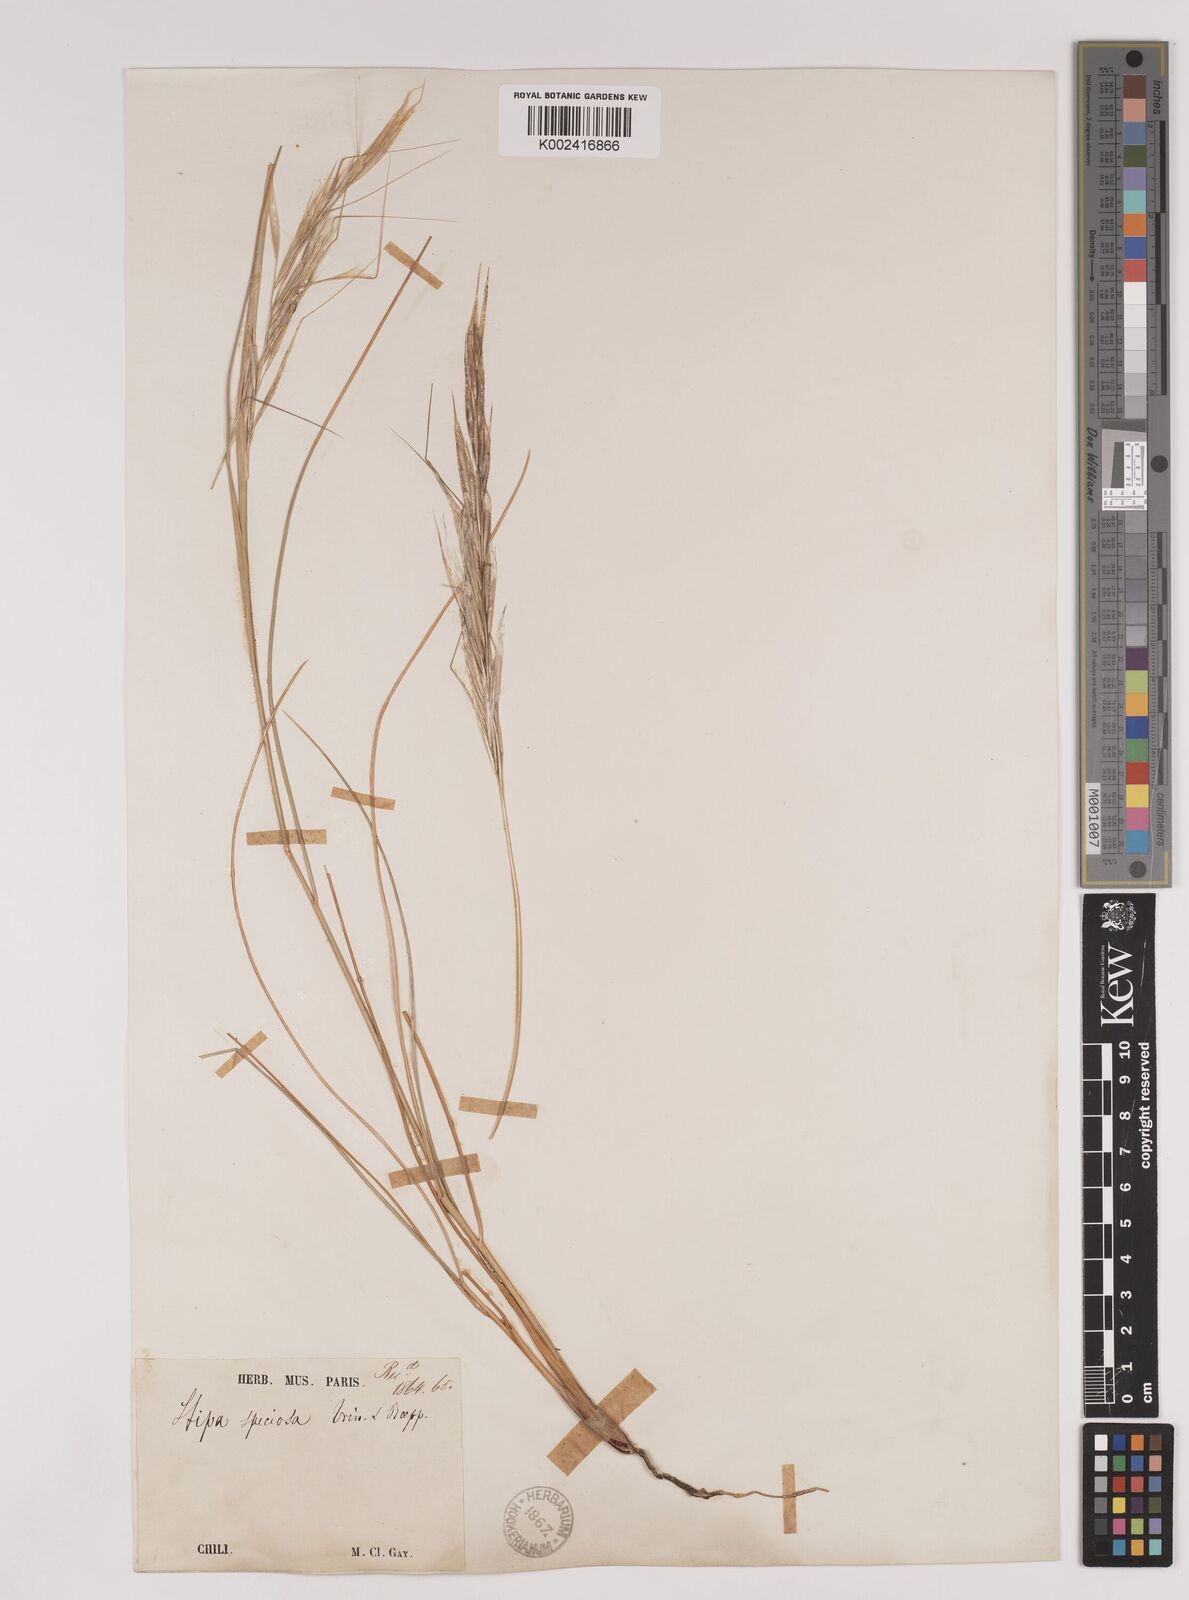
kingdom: Plantae
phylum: Tracheophyta
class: Liliopsida
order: Poales
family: Poaceae
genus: Pappostipa
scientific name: Pappostipa speciosa
